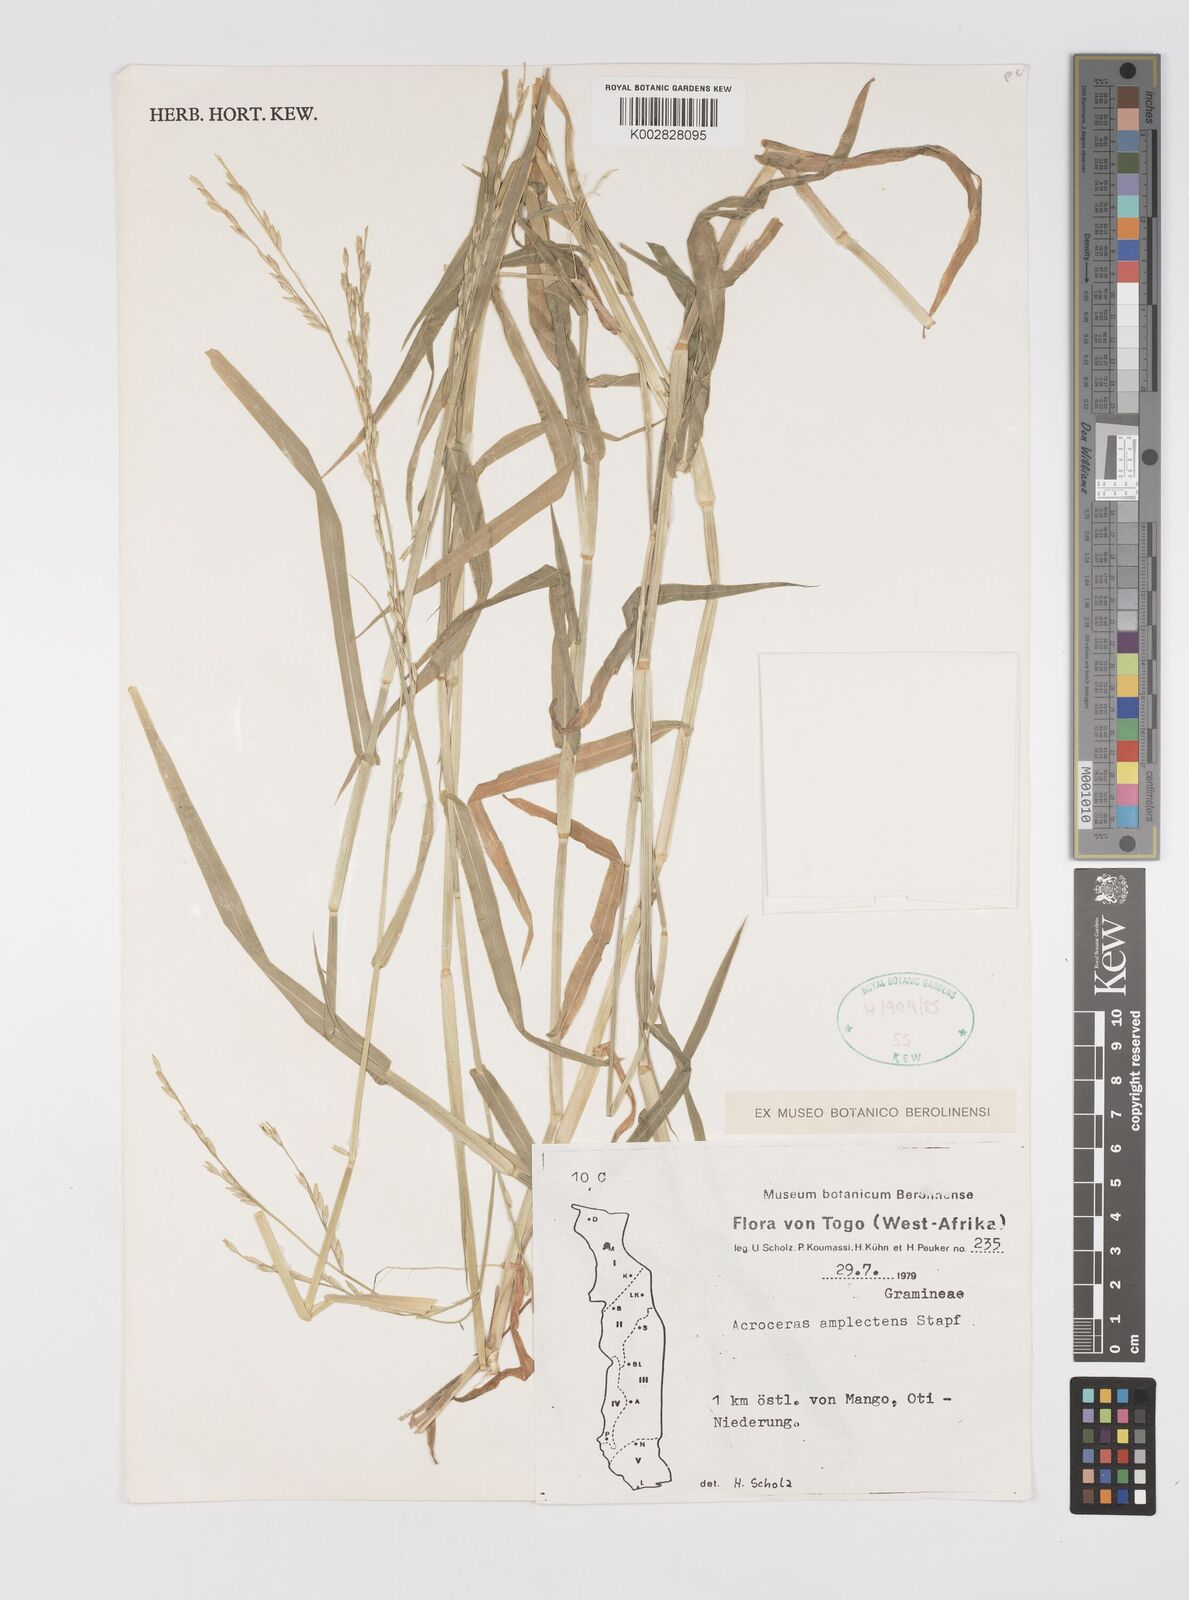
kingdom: Plantae
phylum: Tracheophyta
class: Liliopsida
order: Poales
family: Poaceae
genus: Acroceras
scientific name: Acroceras amplectens
